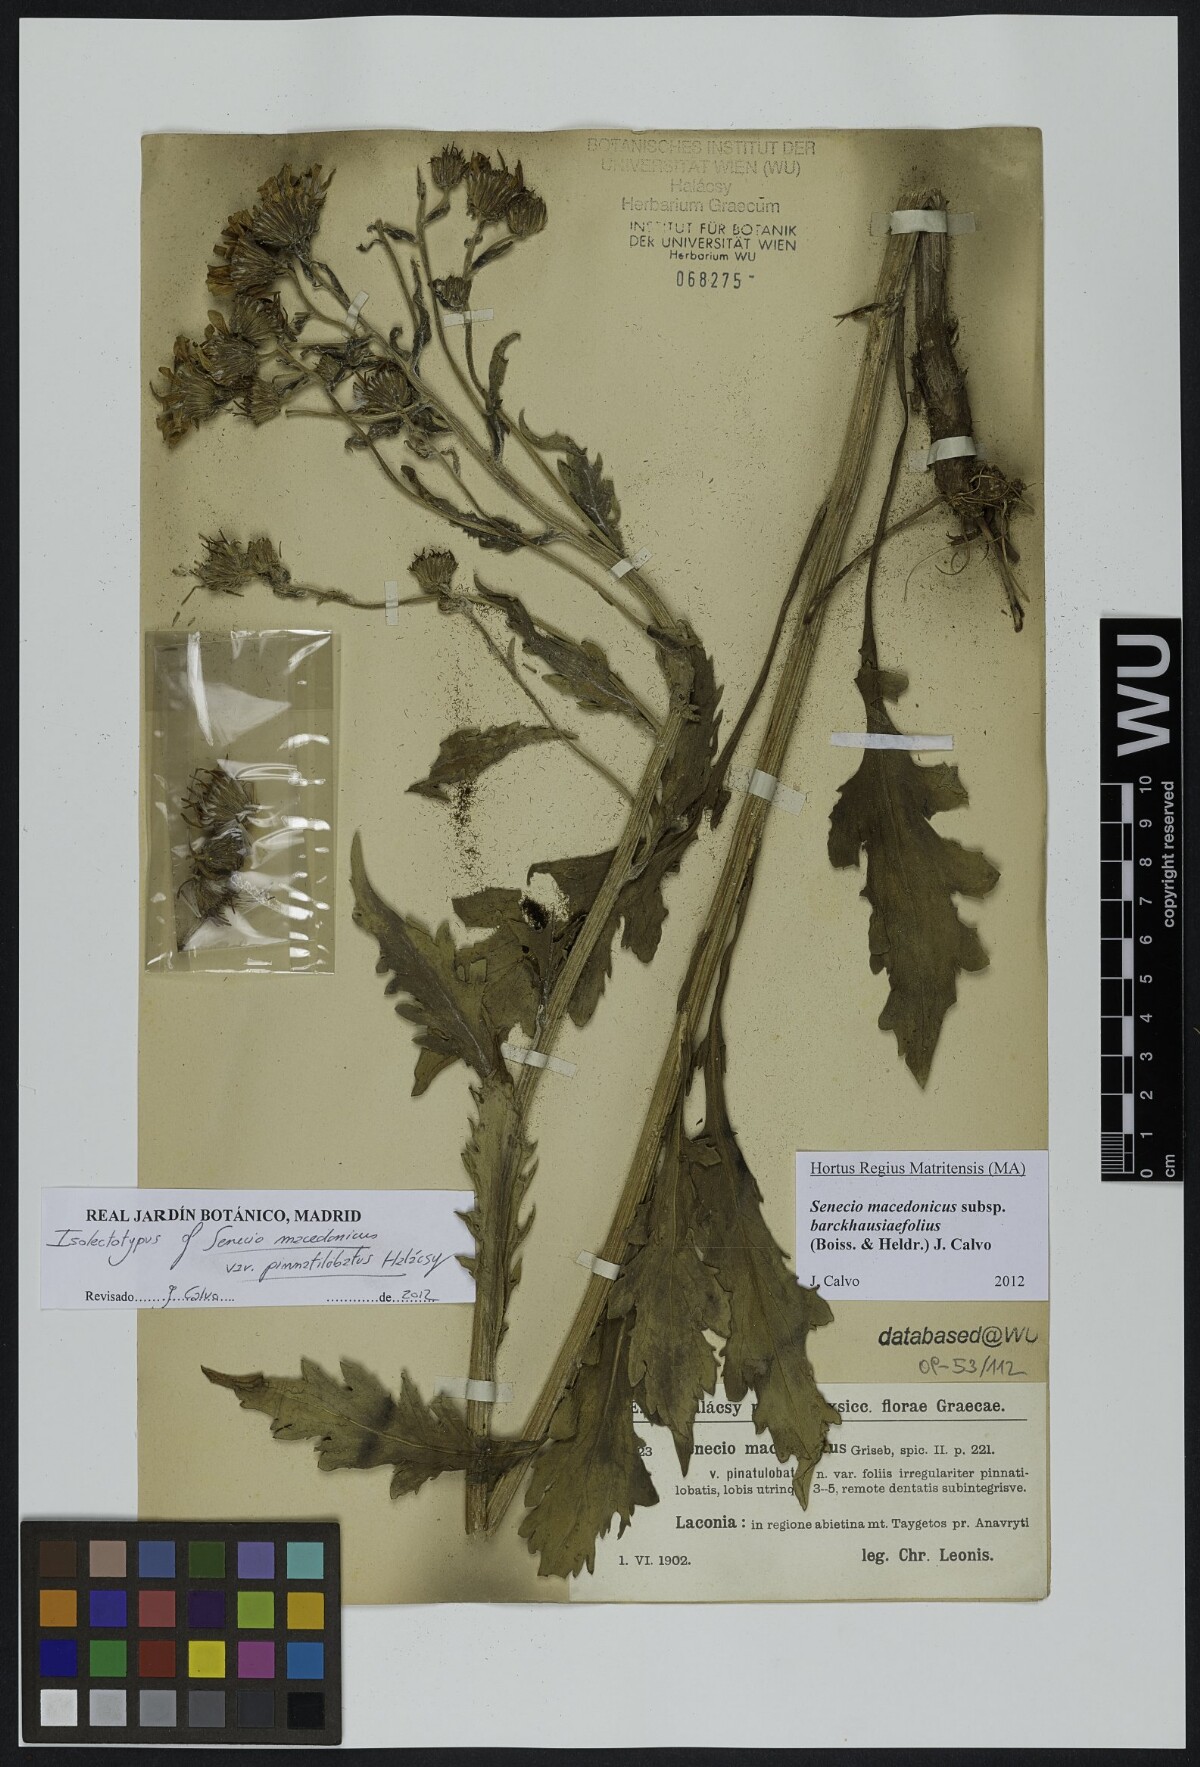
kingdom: Plantae
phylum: Tracheophyta
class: Magnoliopsida
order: Asterales
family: Asteraceae
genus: Senecio
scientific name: Senecio macedonicus
